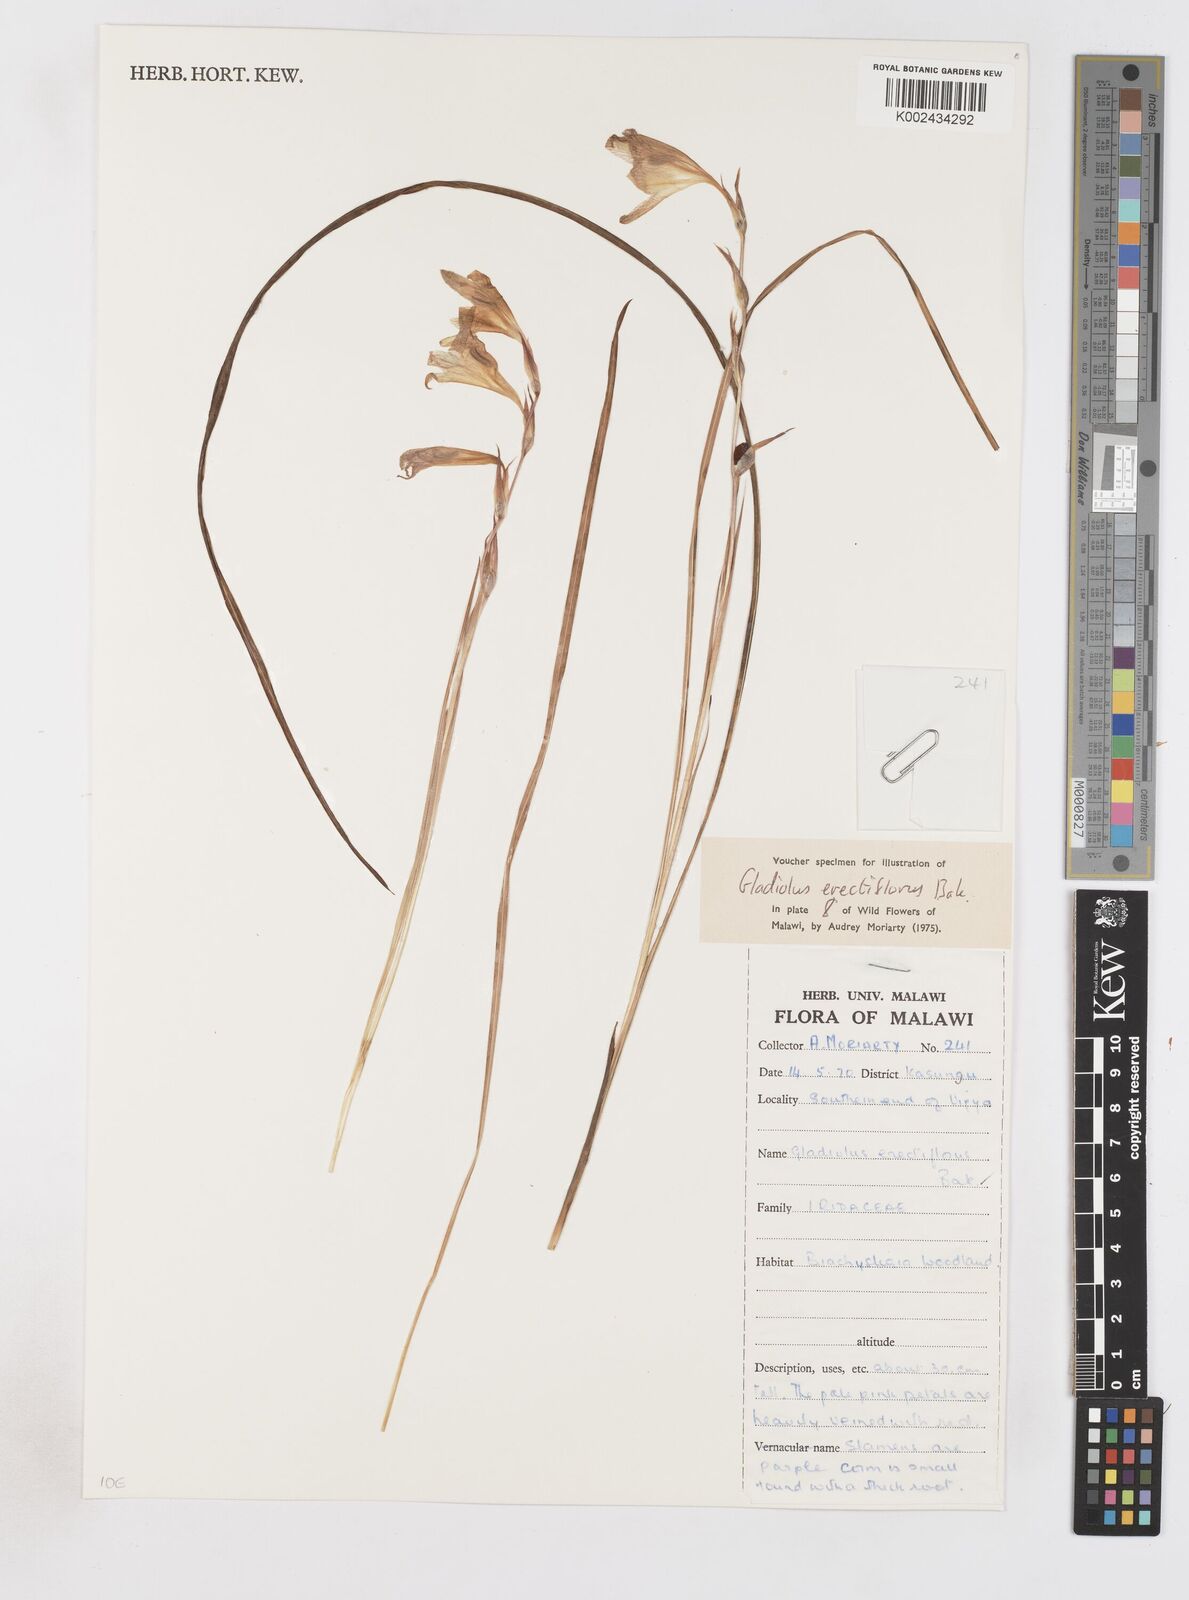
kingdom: Plantae
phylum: Tracheophyta
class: Liliopsida
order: Asparagales
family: Iridaceae
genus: Gladiolus
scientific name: Gladiolus erectiflorus
